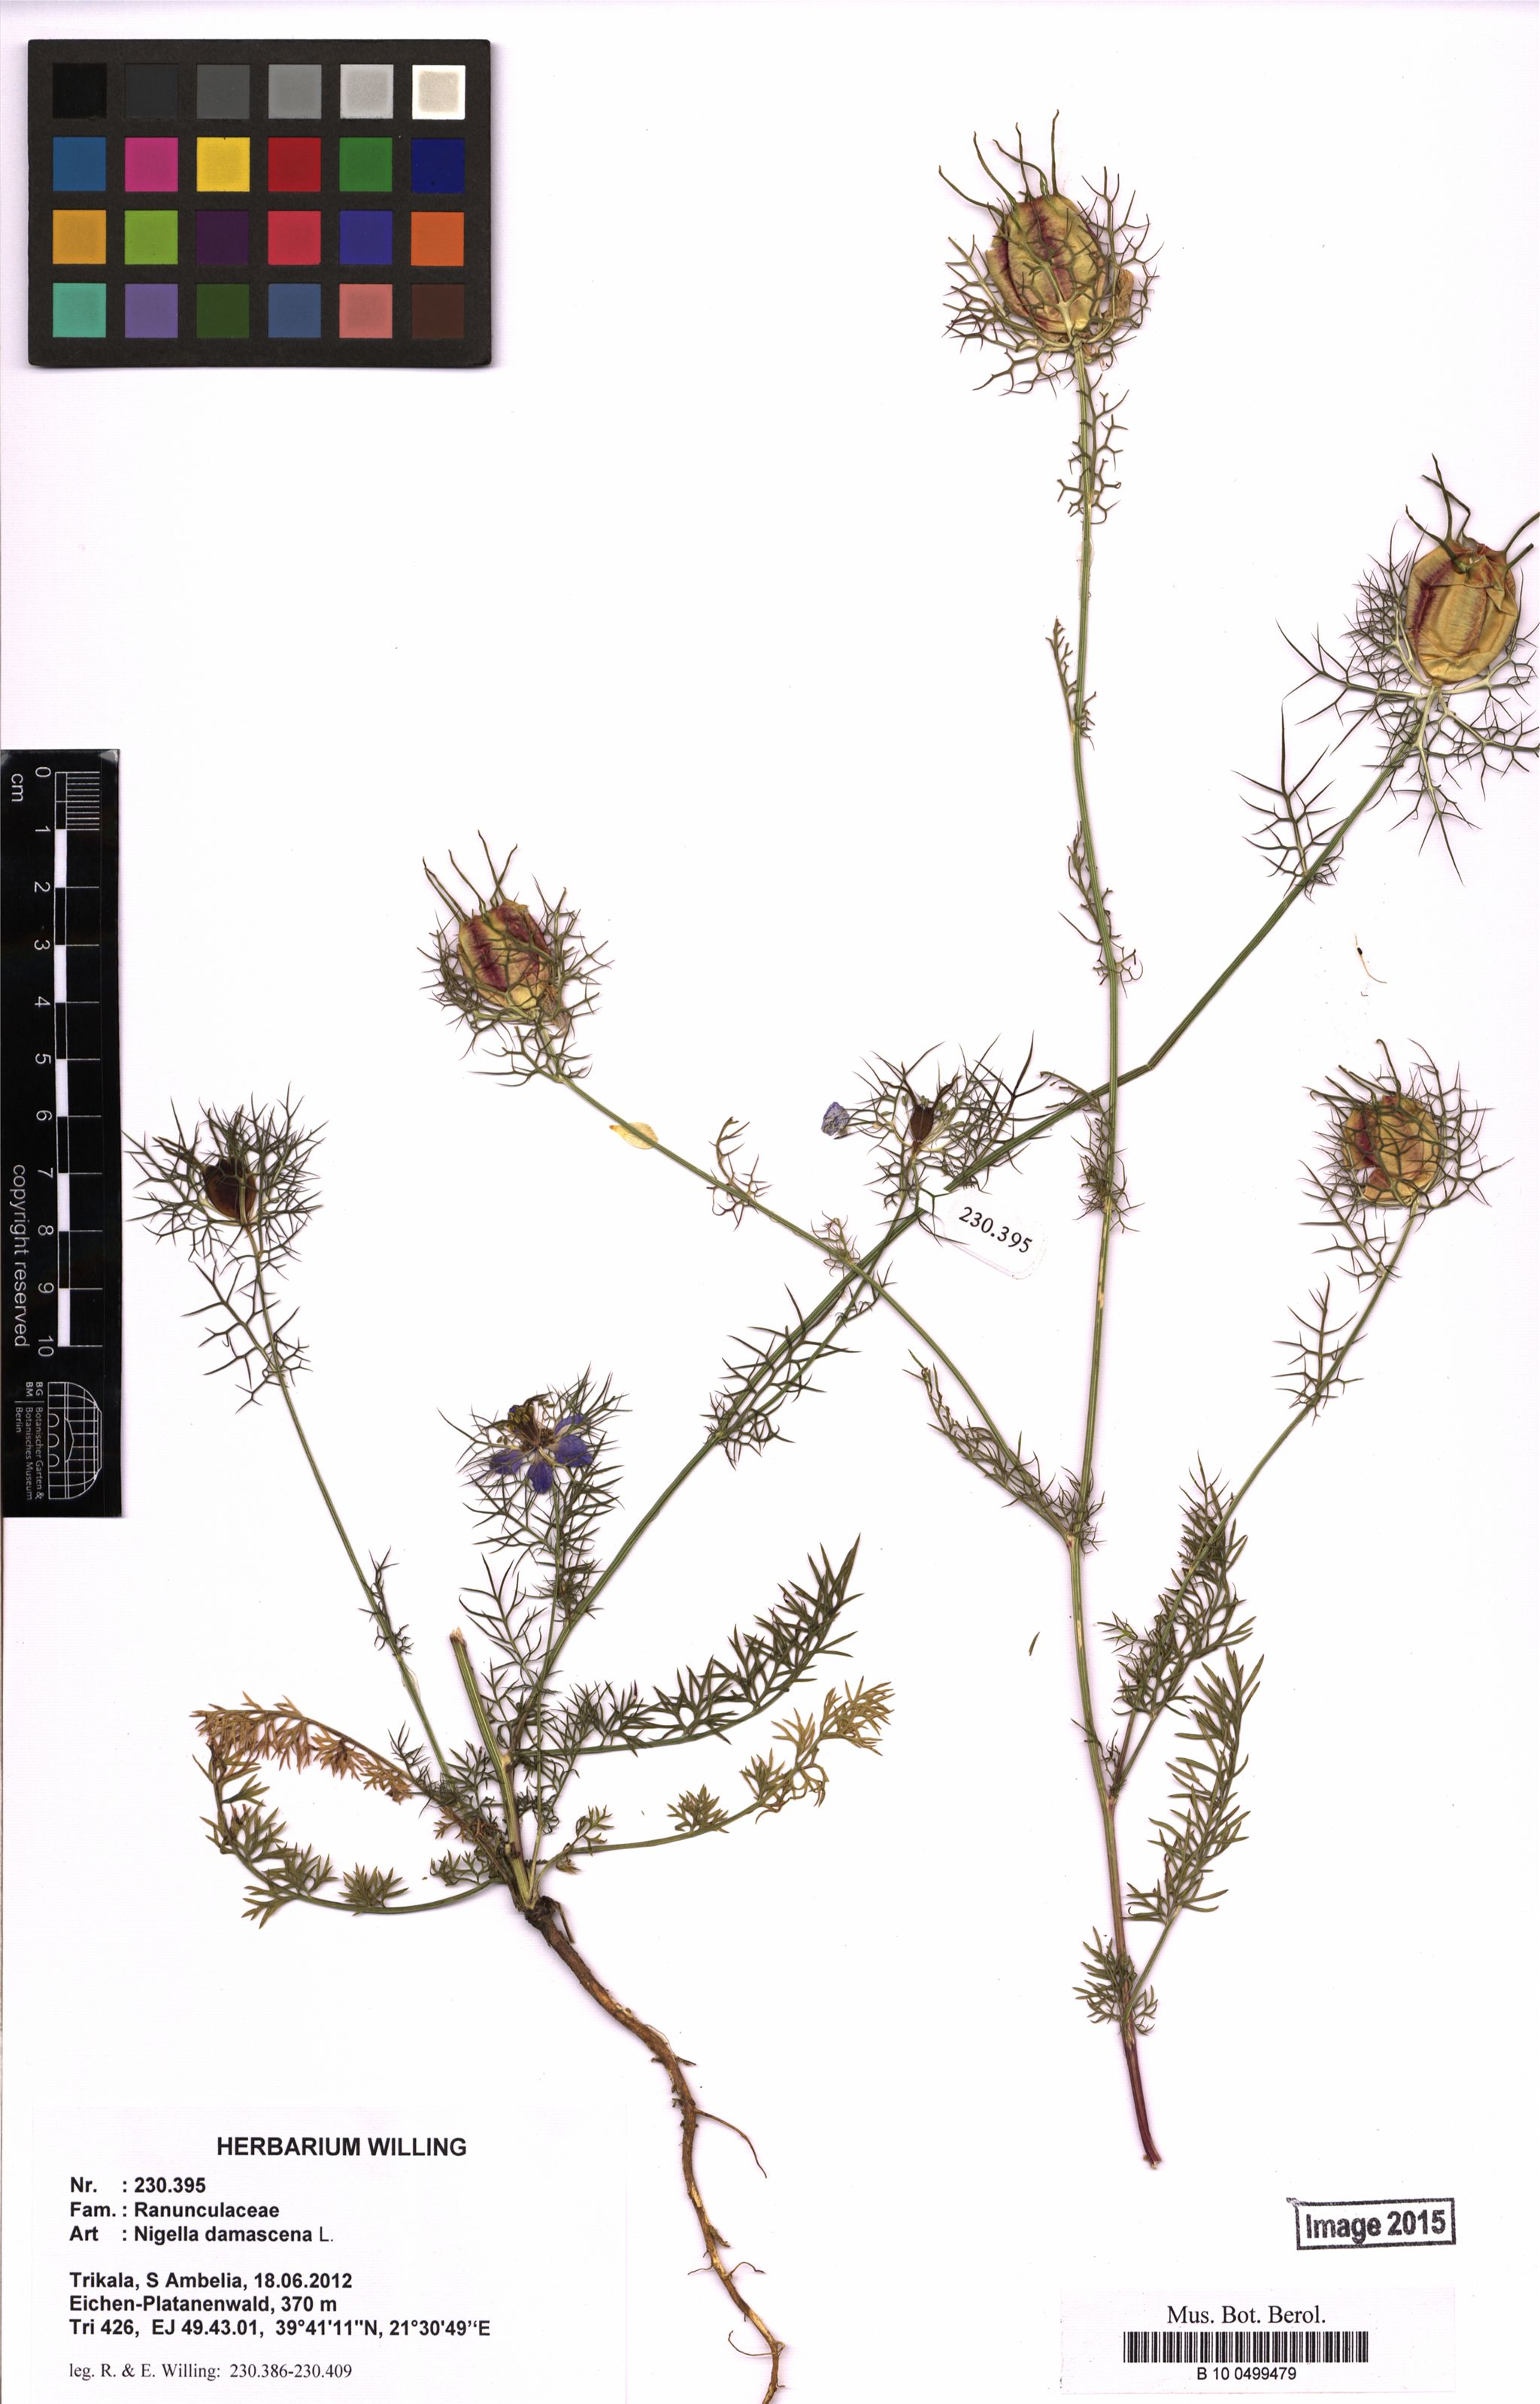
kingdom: Plantae
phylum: Tracheophyta
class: Magnoliopsida
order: Ranunculales
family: Ranunculaceae
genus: Nigella
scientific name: Nigella damascena
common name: Love-in-a-mist
